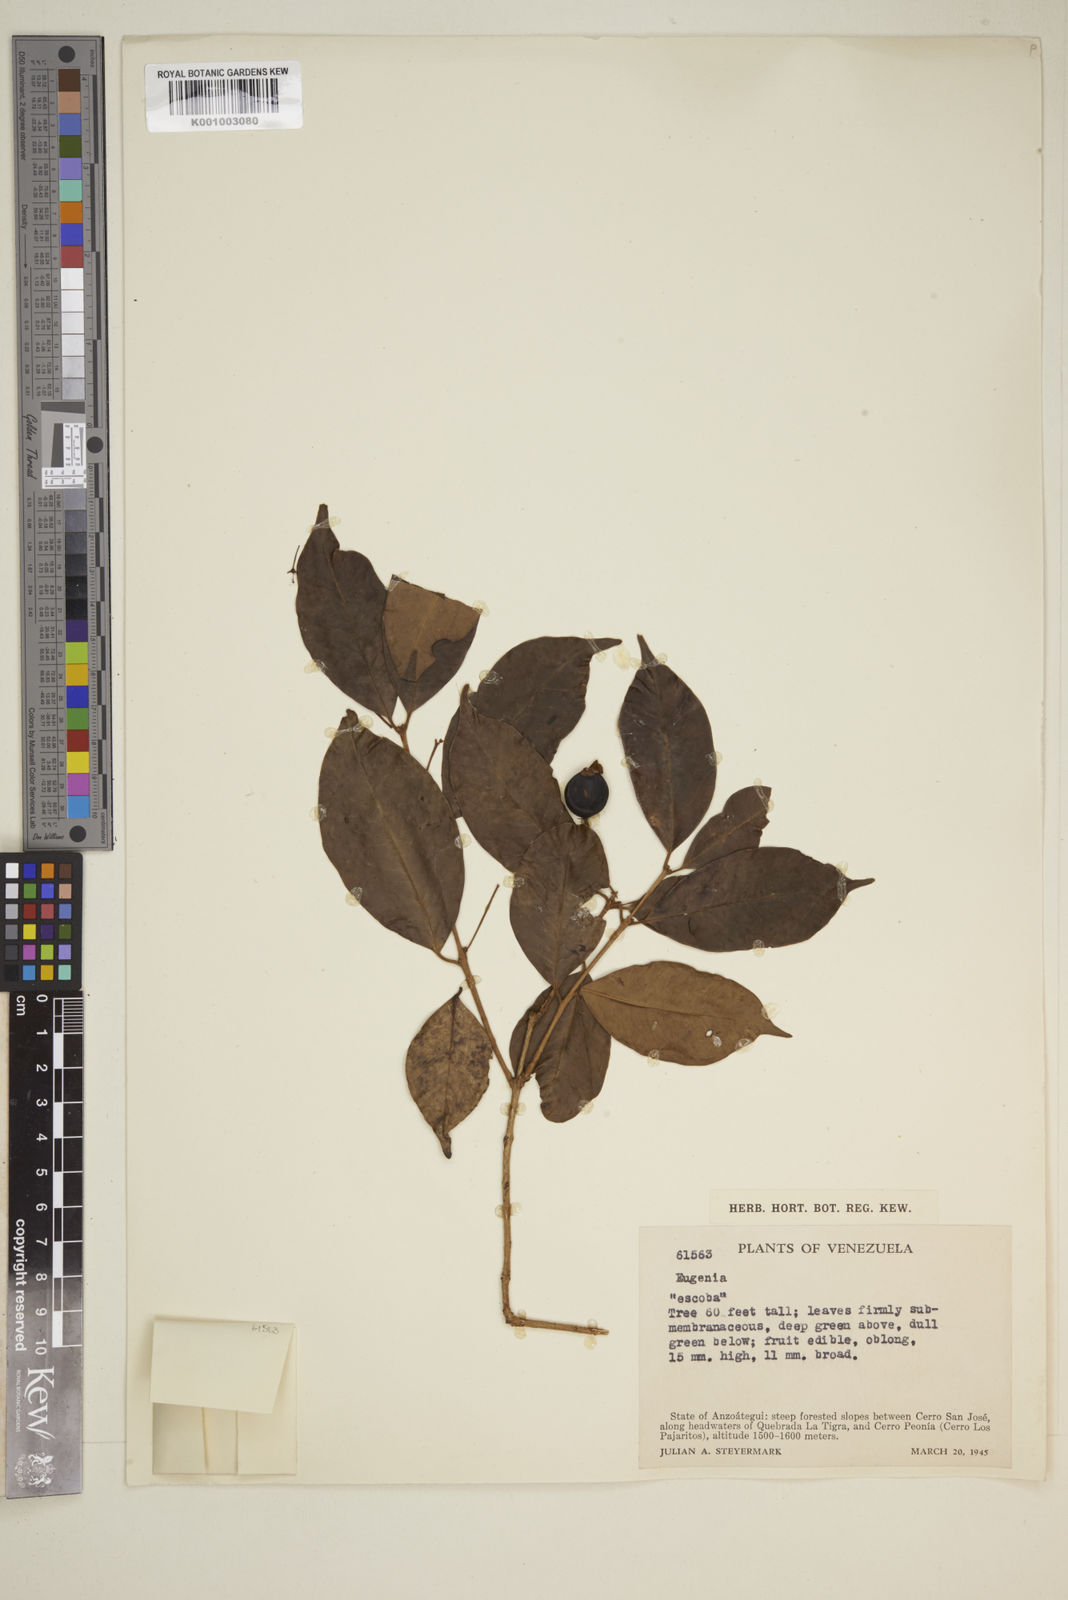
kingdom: Plantae
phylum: Tracheophyta
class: Magnoliopsida
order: Myrtales
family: Myrtaceae
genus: Eugenia
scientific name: Eugenia
